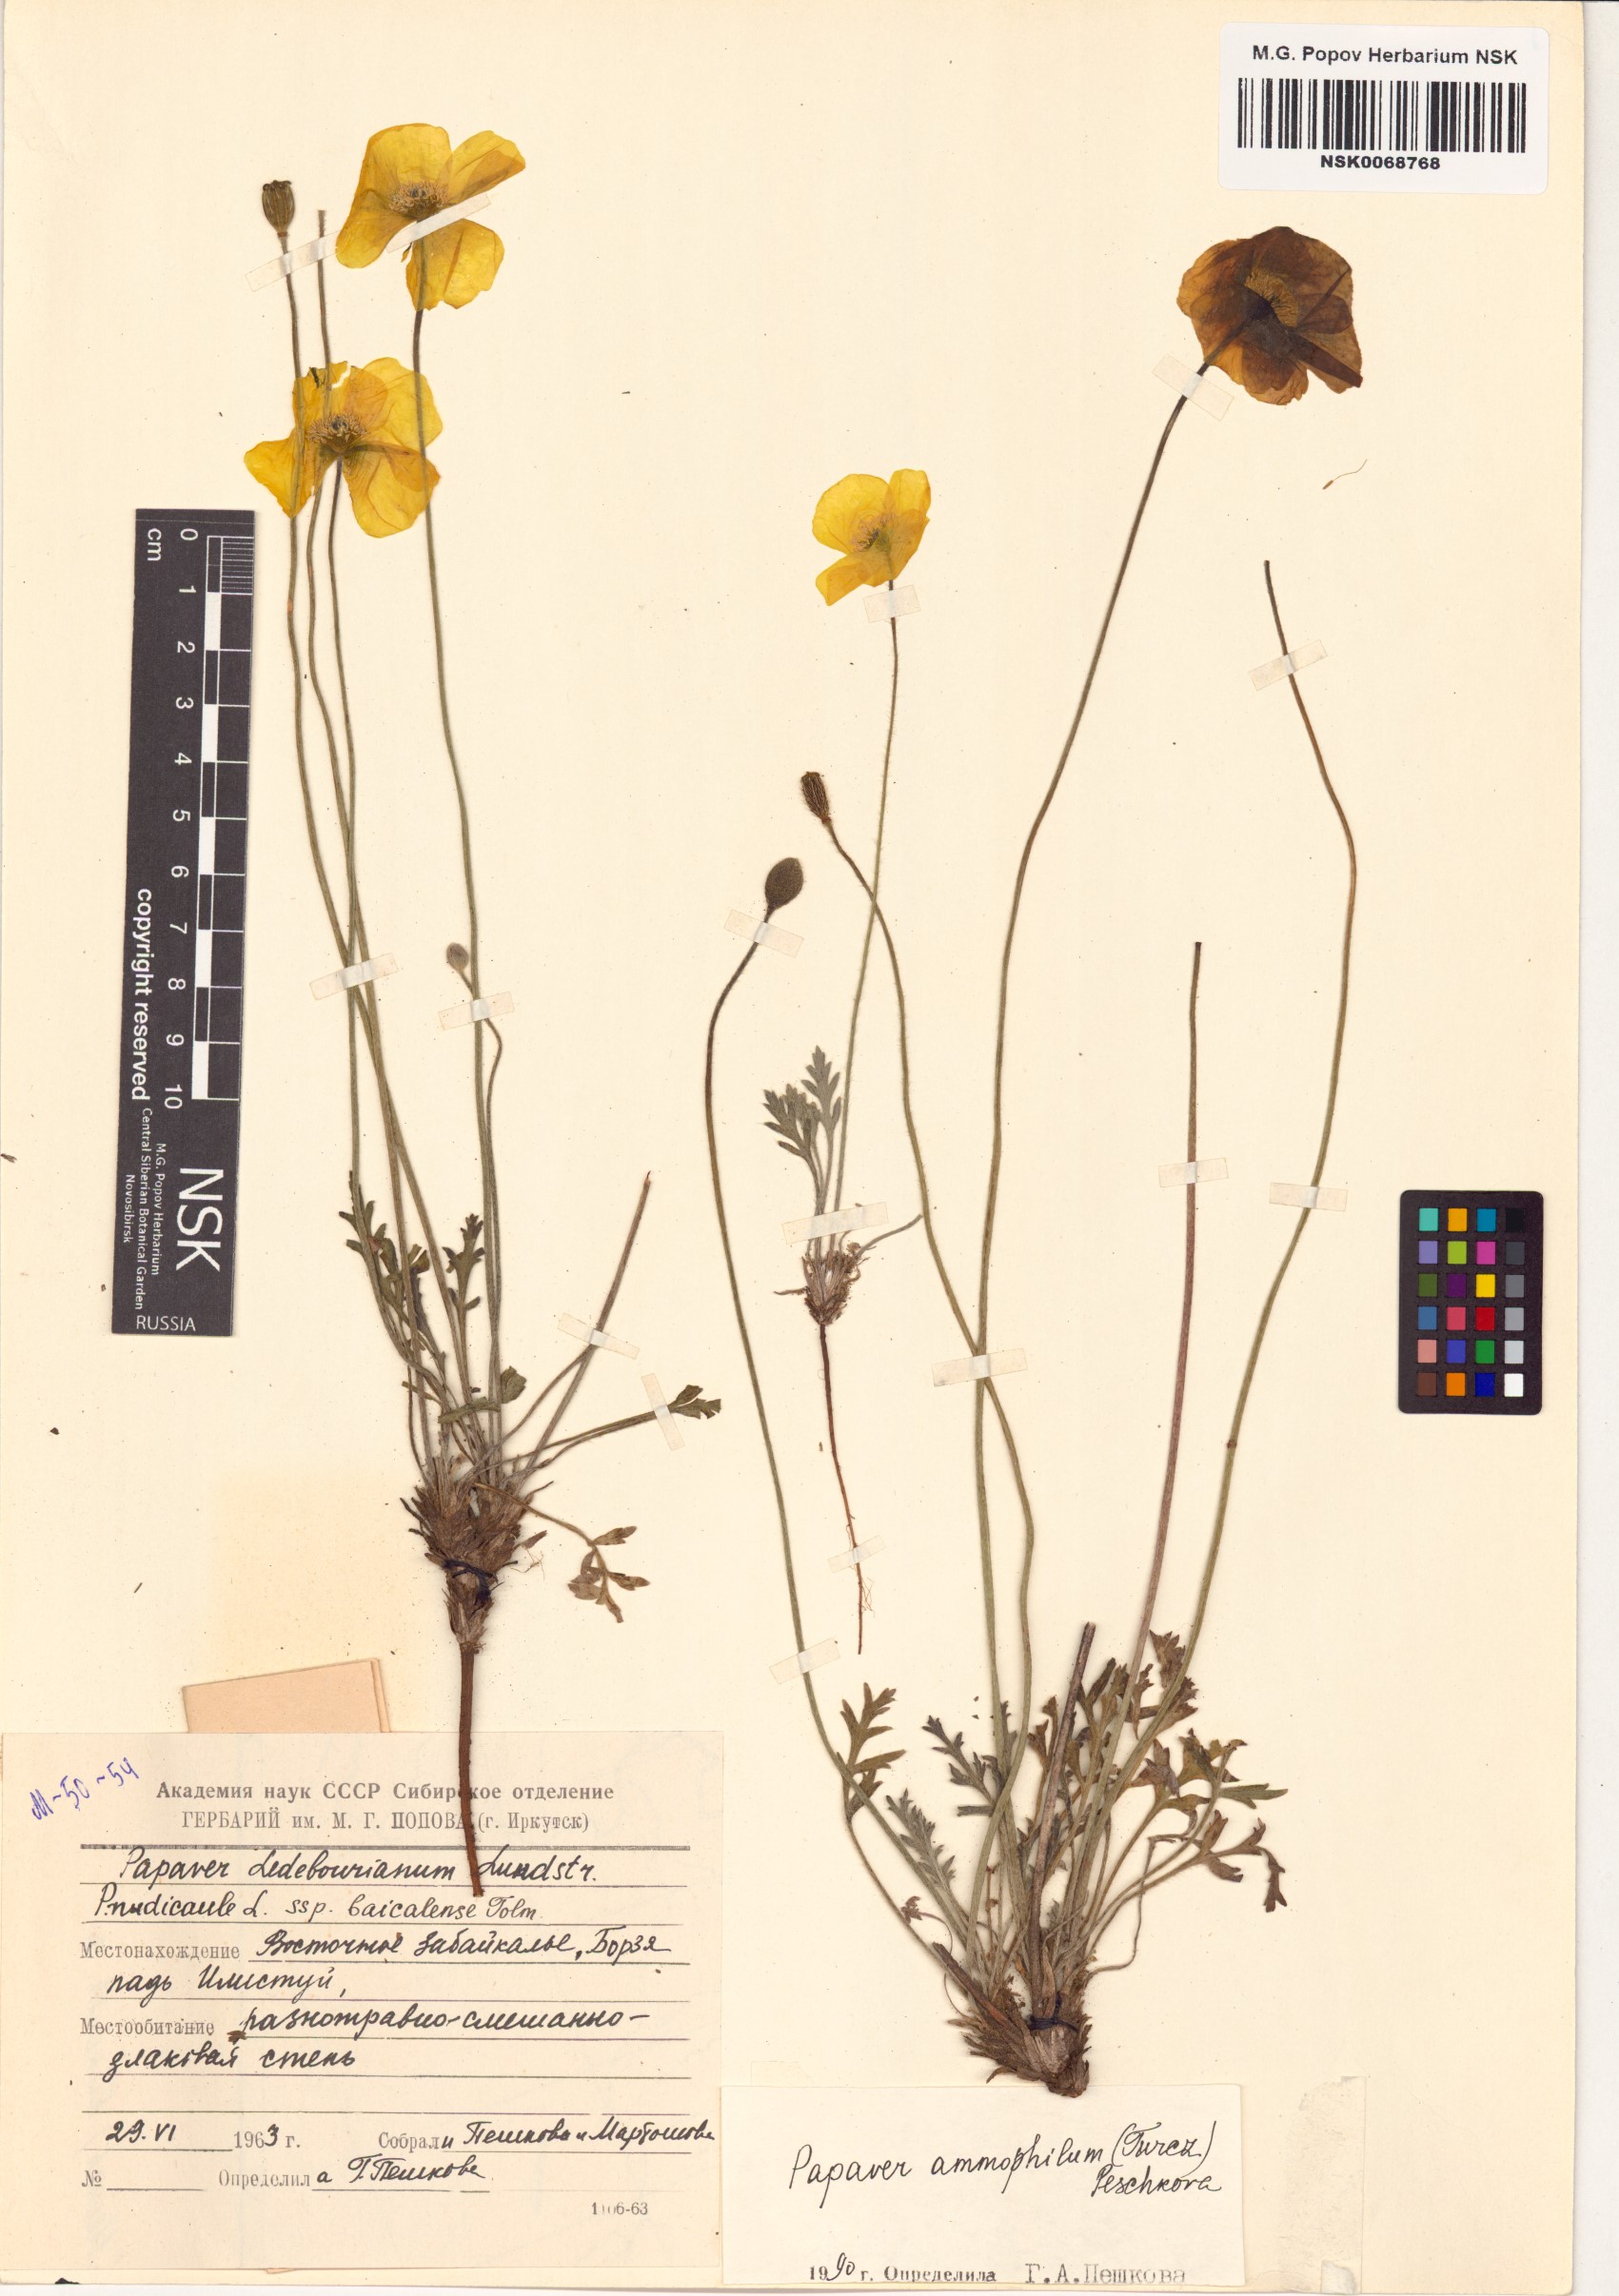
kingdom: Plantae
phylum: Tracheophyta
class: Magnoliopsida
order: Ranunculales
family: Papaveraceae
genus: Papaver
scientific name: Papaver nudicaule
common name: Arctic poppy
